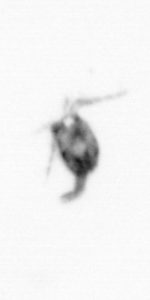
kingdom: Animalia
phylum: Arthropoda
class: Copepoda
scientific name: Copepoda
